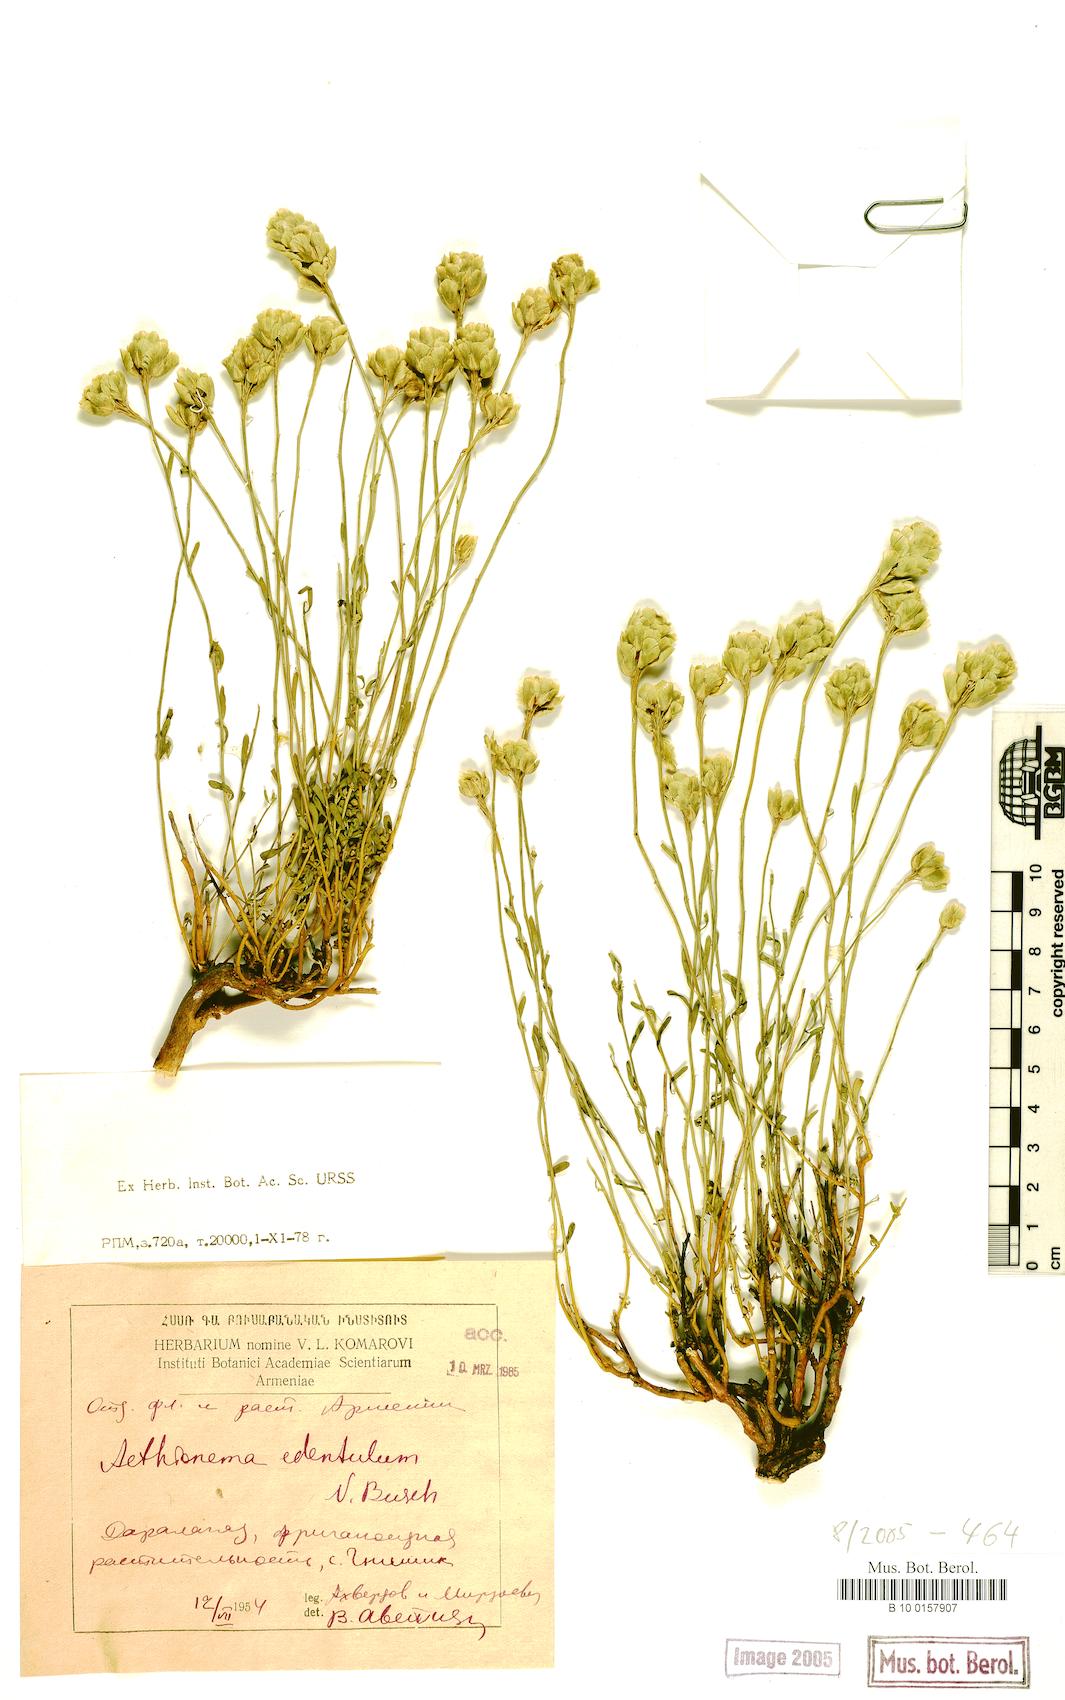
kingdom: Plantae
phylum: Tracheophyta
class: Magnoliopsida
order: Brassicales
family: Brassicaceae
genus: Aethionema
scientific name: Aethionema membranaceum
